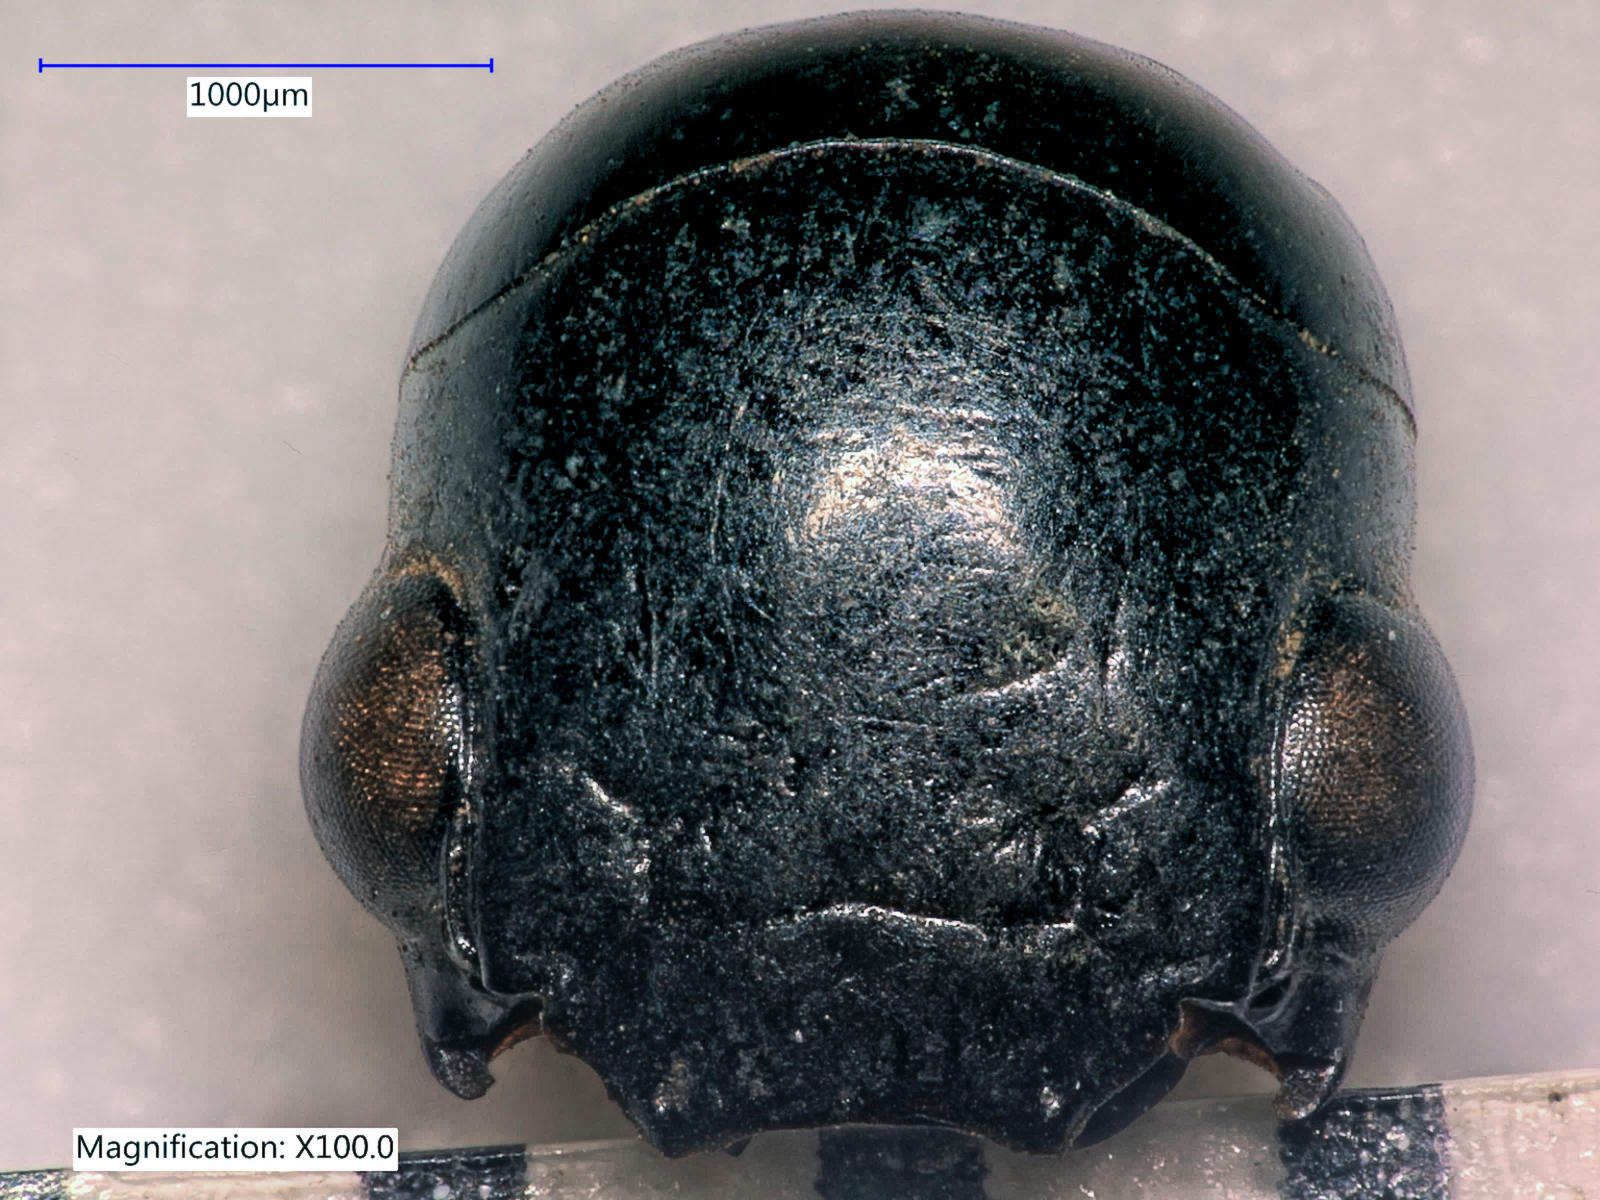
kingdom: Animalia
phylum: Arthropoda
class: Insecta
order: Coleoptera
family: Carabidae
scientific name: Carabidae
